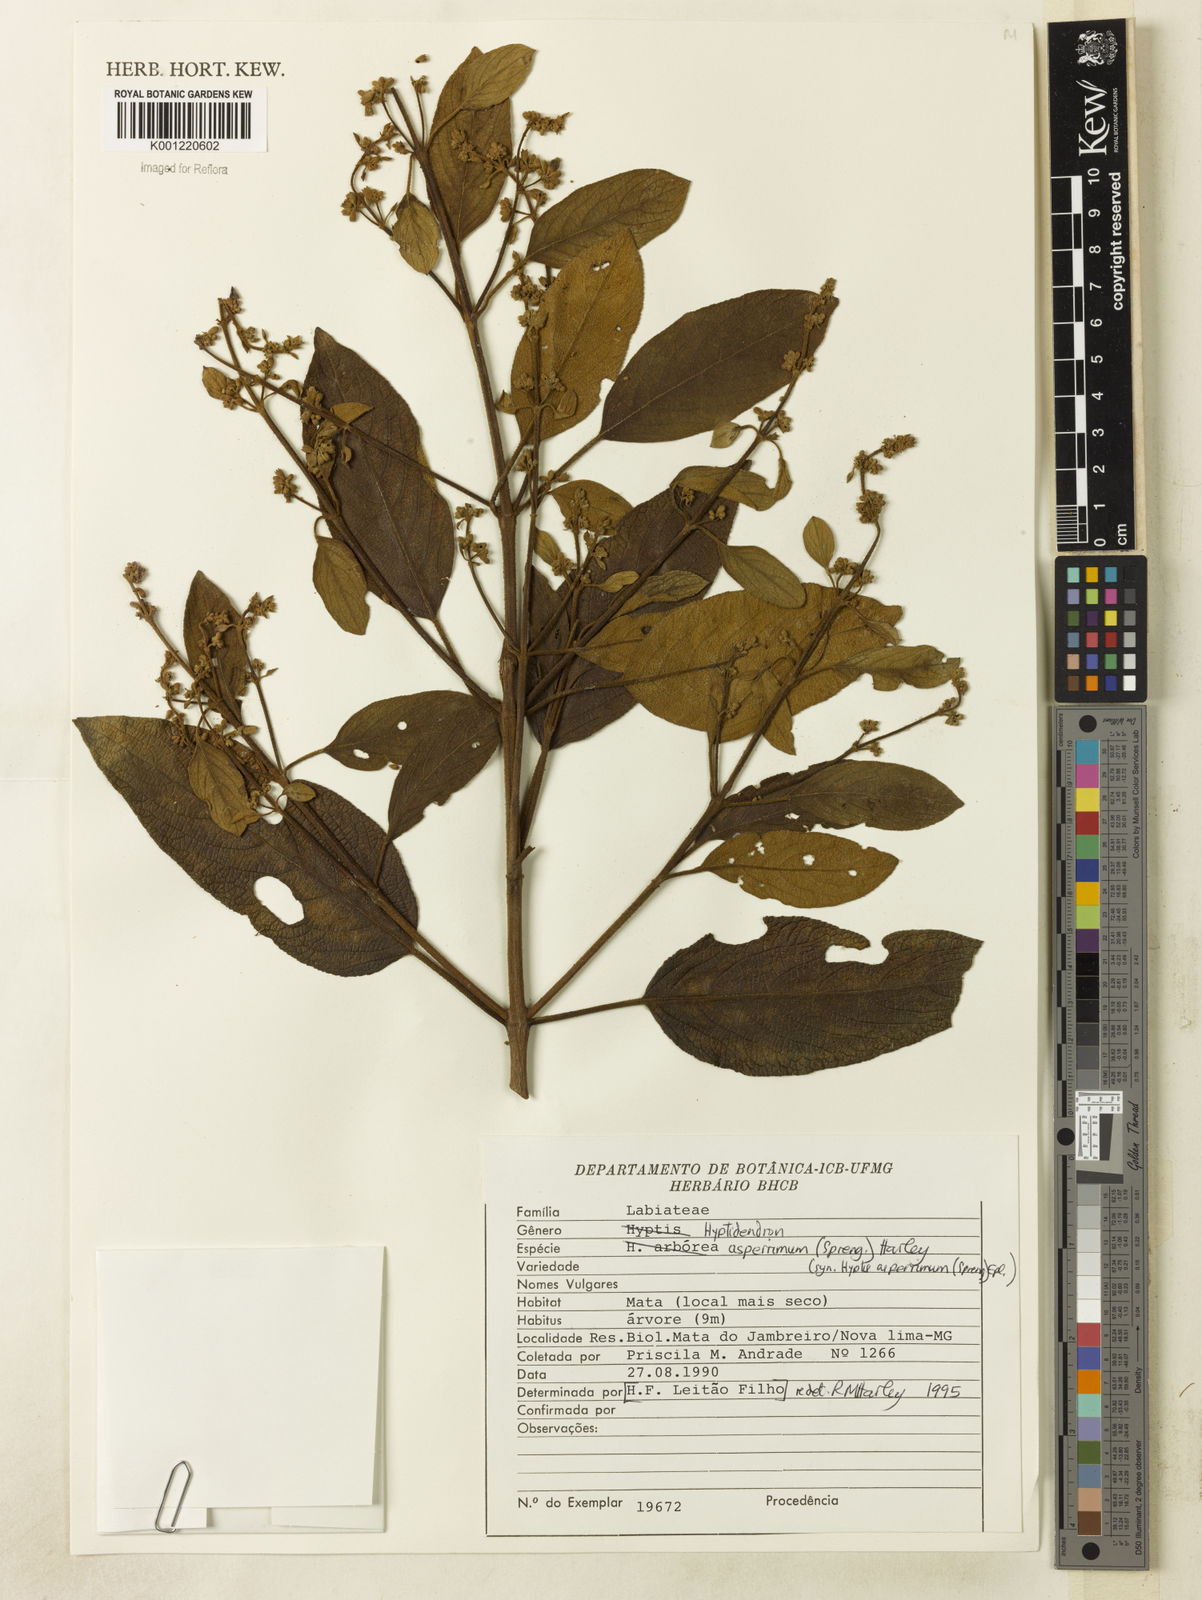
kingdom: Plantae
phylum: Tracheophyta
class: Magnoliopsida
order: Lamiales
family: Lamiaceae
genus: Hyptidendron
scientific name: Hyptidendron asperrimum
